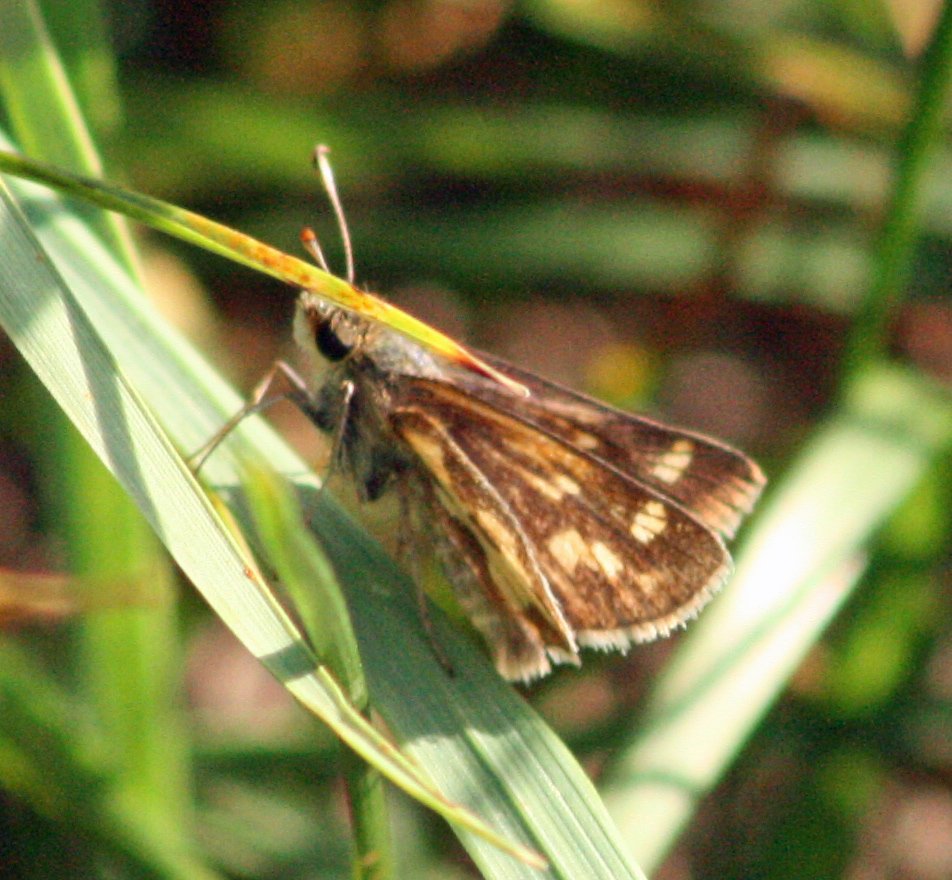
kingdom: Animalia
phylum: Arthropoda
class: Insecta
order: Lepidoptera
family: Hesperiidae
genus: Polites
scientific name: Polites coras
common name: Peck's Skipper
